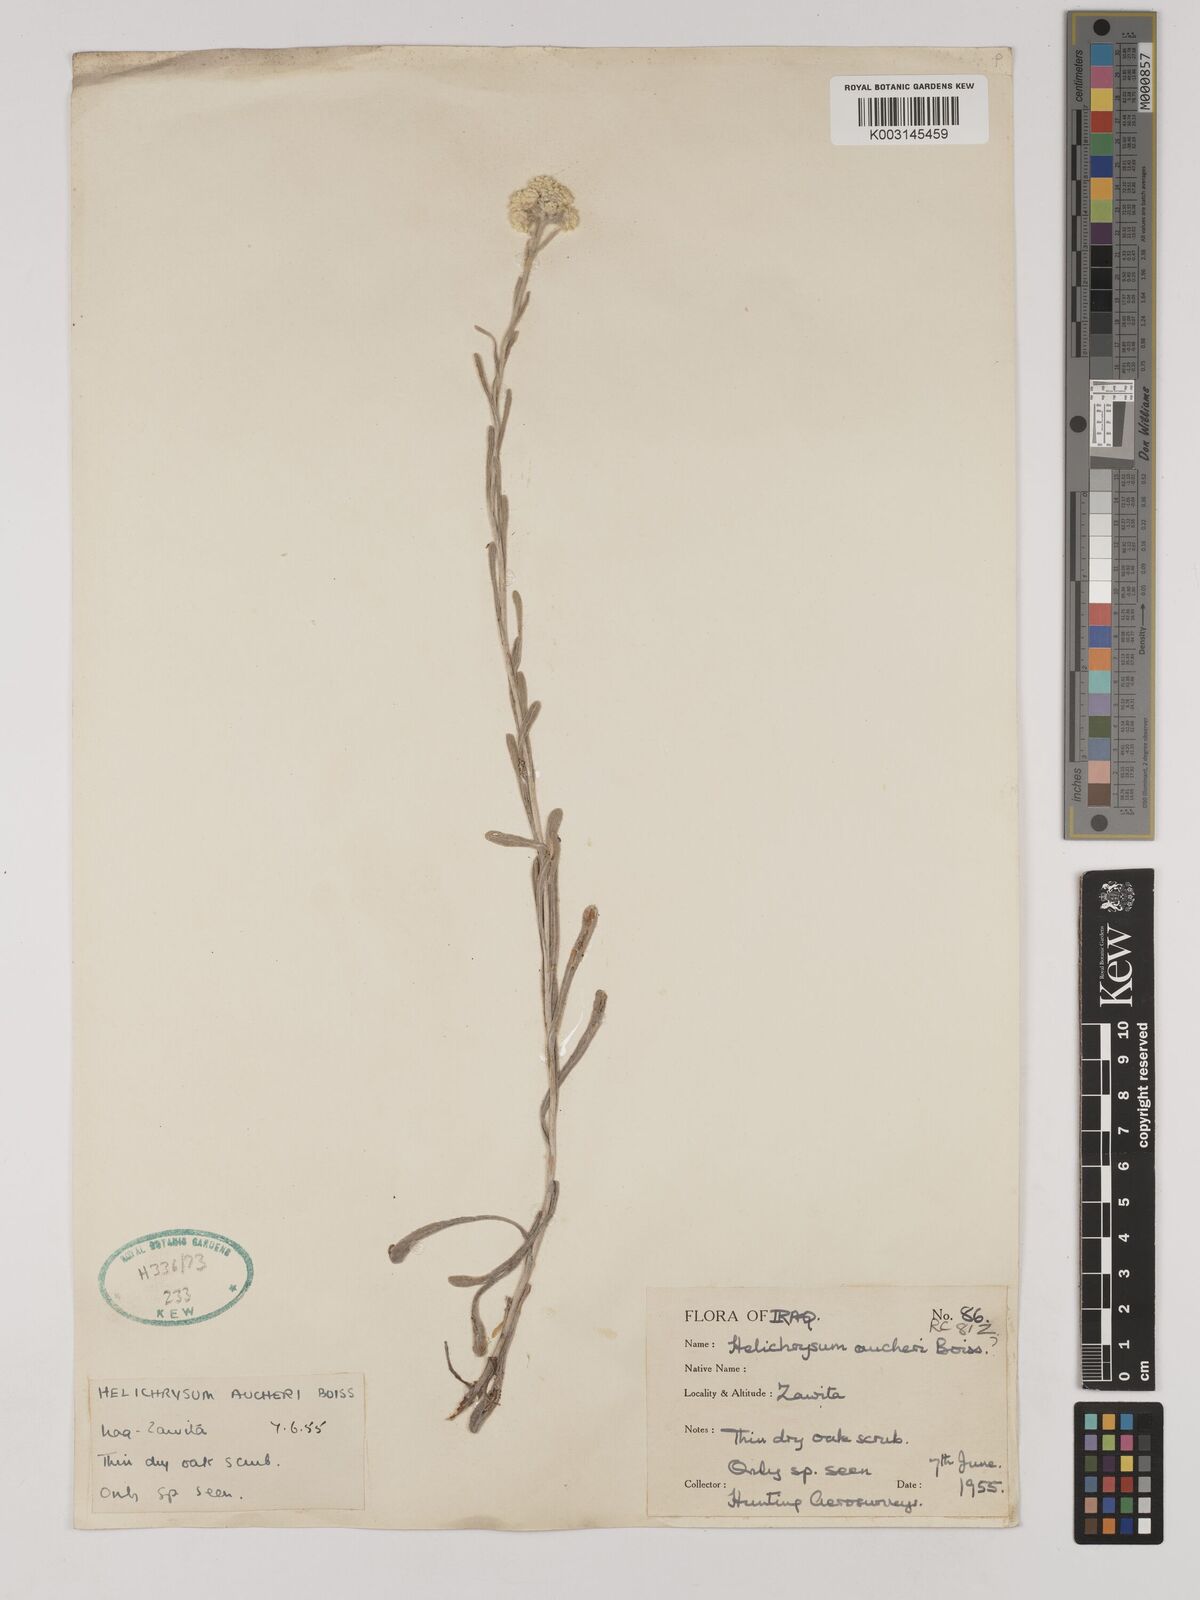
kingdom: Plantae
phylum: Tracheophyta
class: Magnoliopsida
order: Asterales
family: Asteraceae
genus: Helichrysum
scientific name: Helichrysum arenarium
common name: Strawflower
